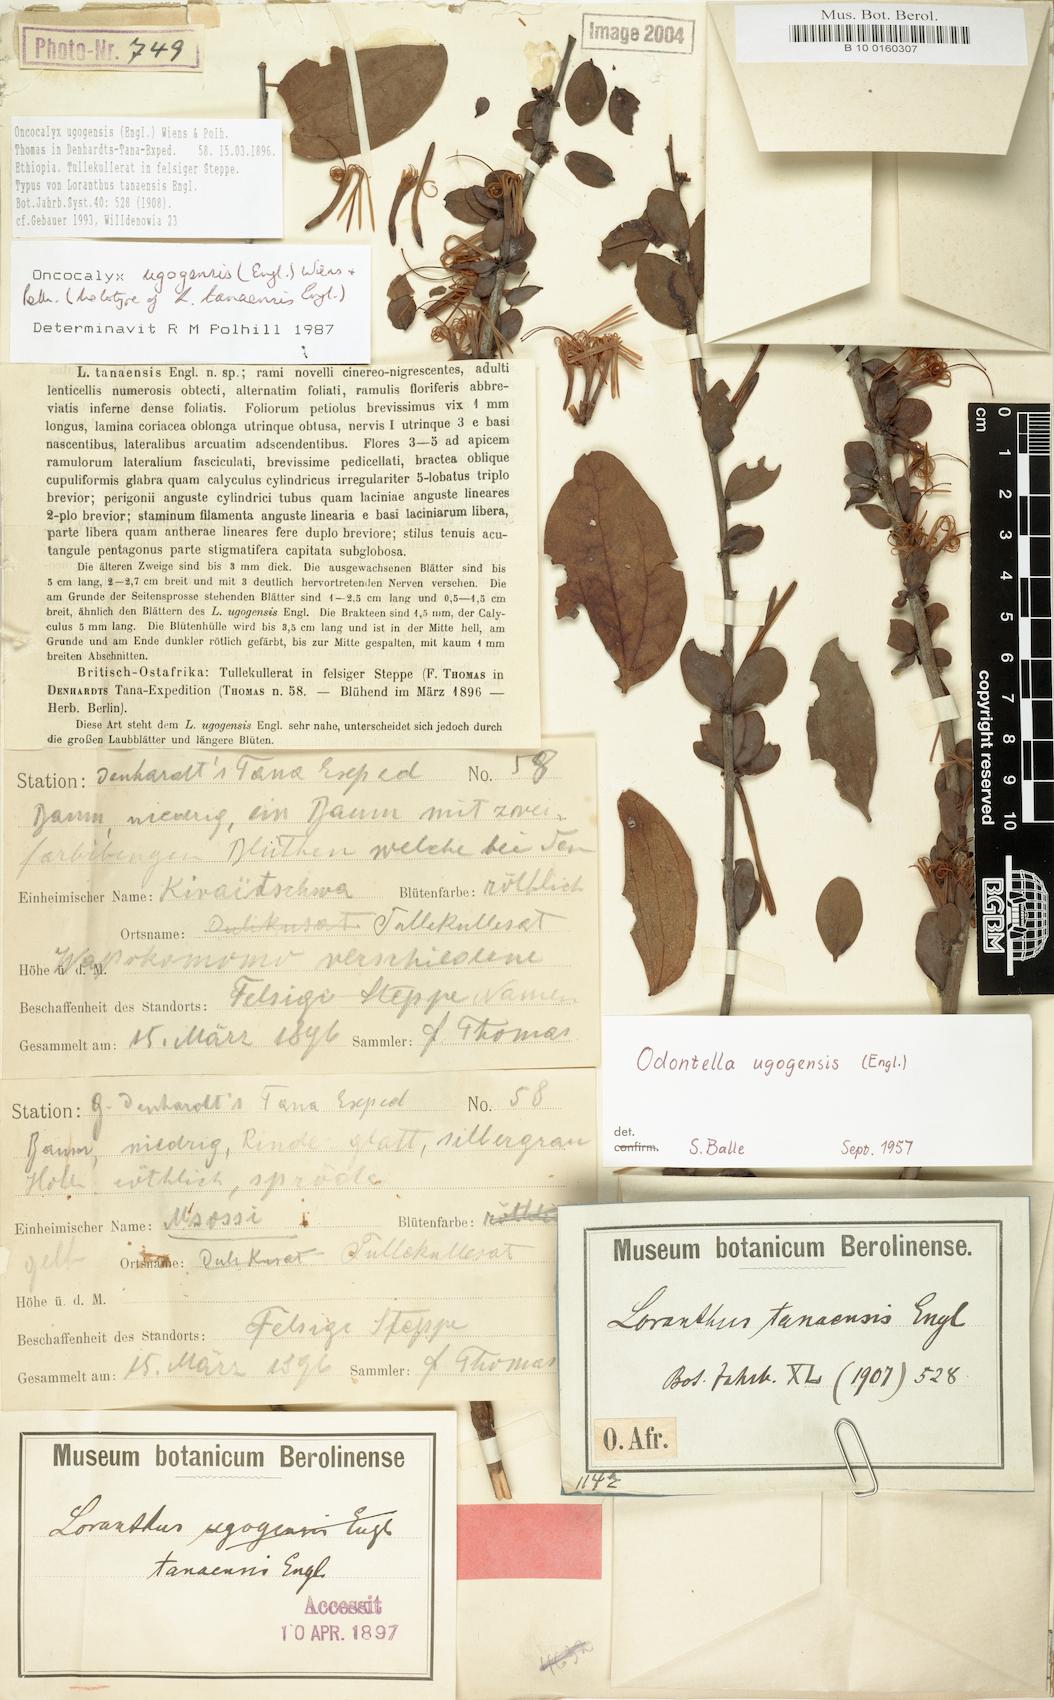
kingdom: Plantae
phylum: Tracheophyta
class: Magnoliopsida
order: Santalales
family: Loranthaceae
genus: Oncocalyx
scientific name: Oncocalyx ugogensis
